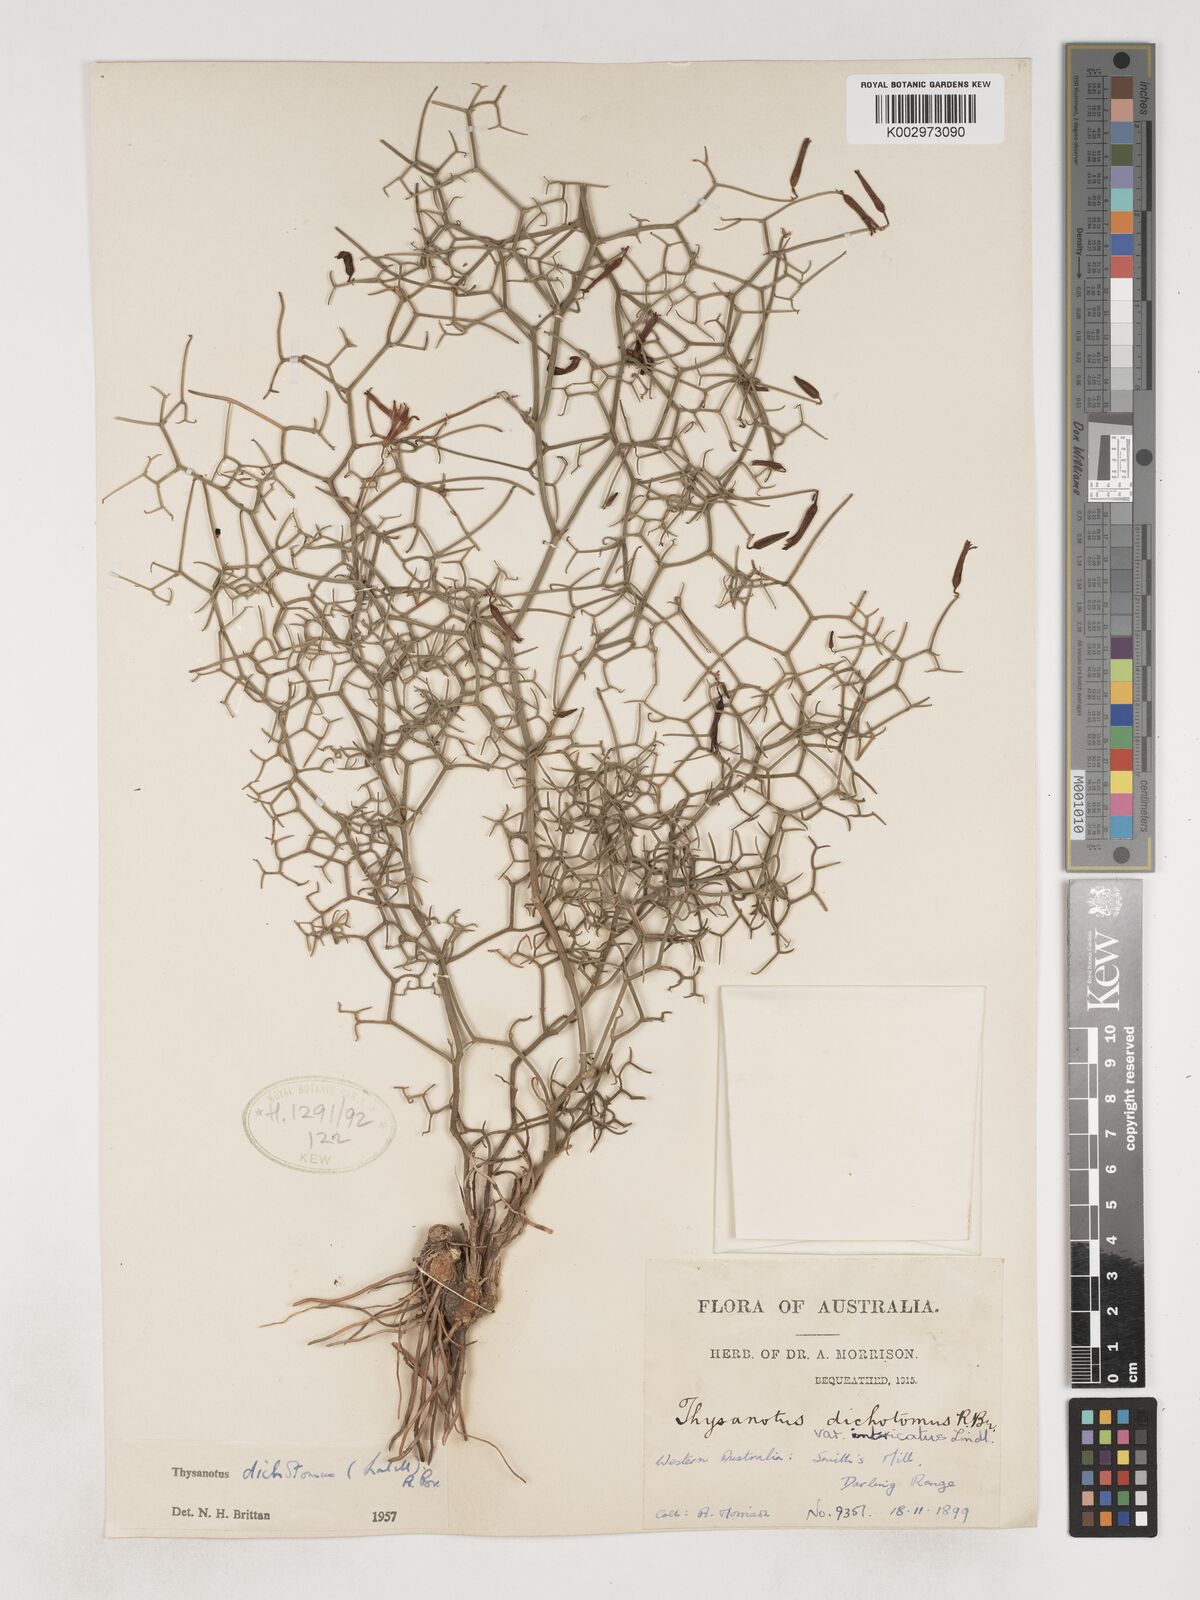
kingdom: Plantae
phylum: Tracheophyta
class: Liliopsida
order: Asparagales
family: Asparagaceae
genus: Thysanotus
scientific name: Thysanotus dichotomus
